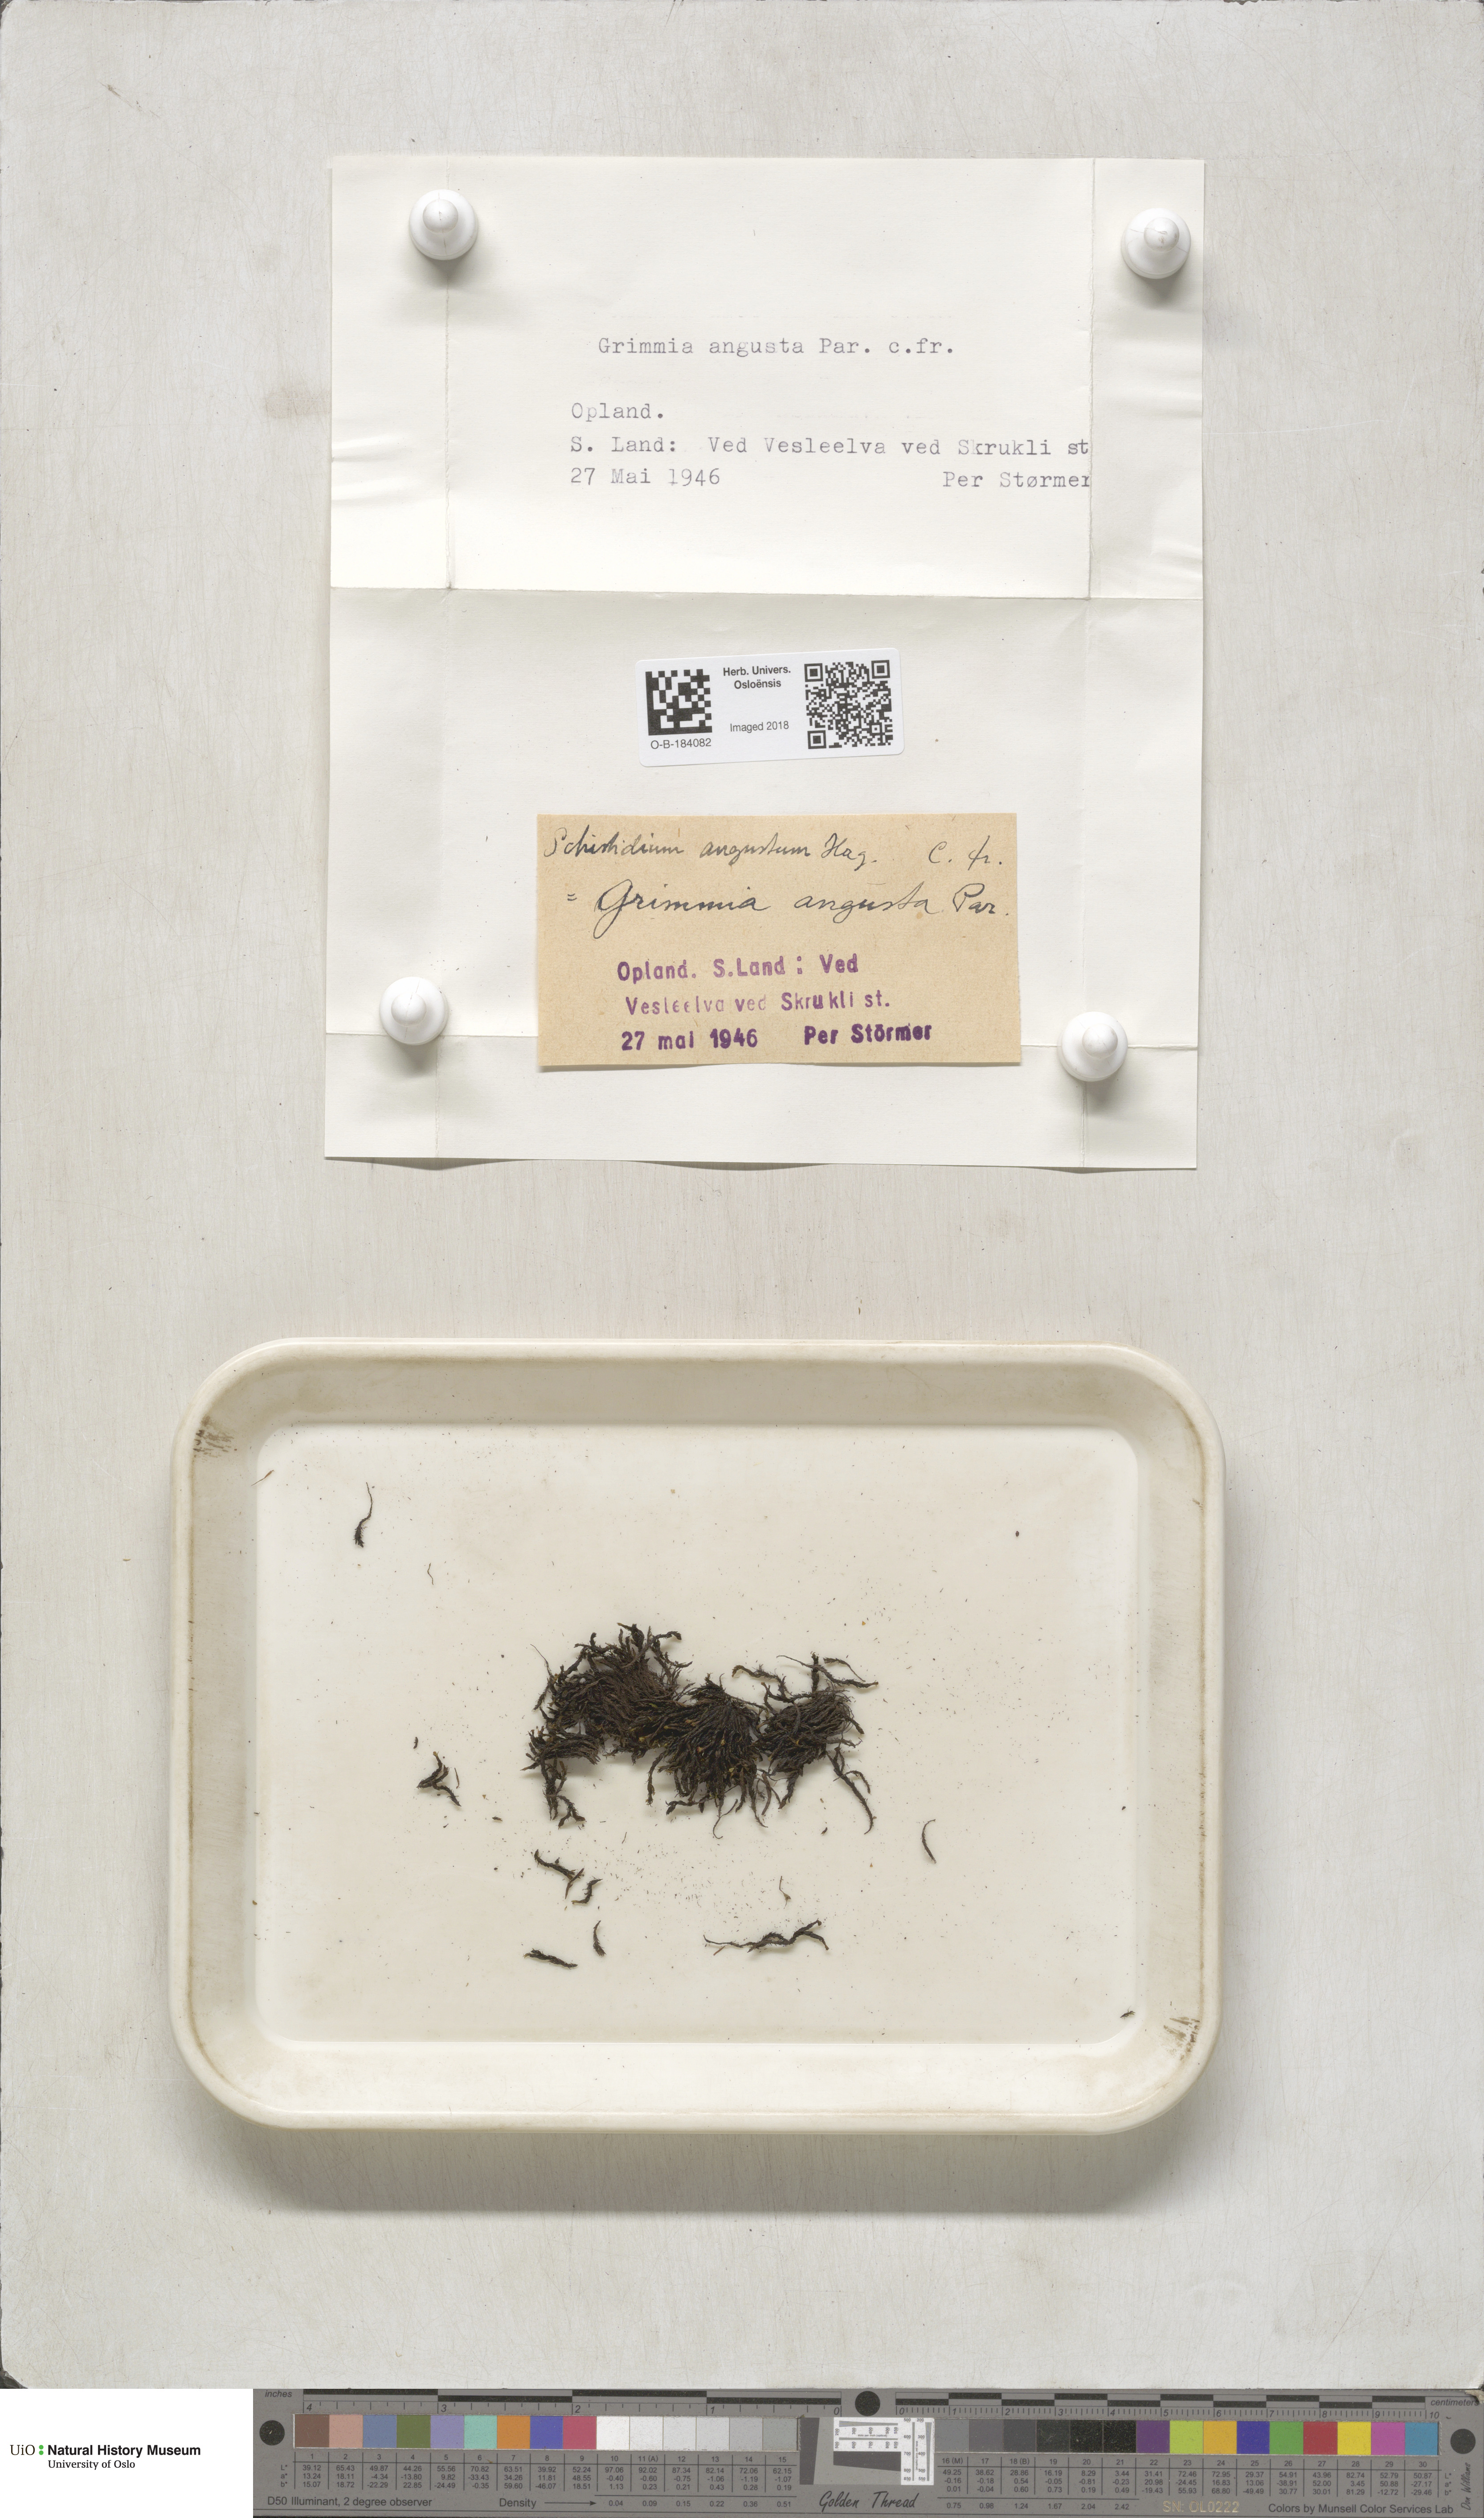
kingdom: Plantae
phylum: Bryophyta
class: Bryopsida
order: Grimmiales
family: Grimmiaceae
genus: Schistidium
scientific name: Schistidium agassizii
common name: Agassiz's bloom moss
